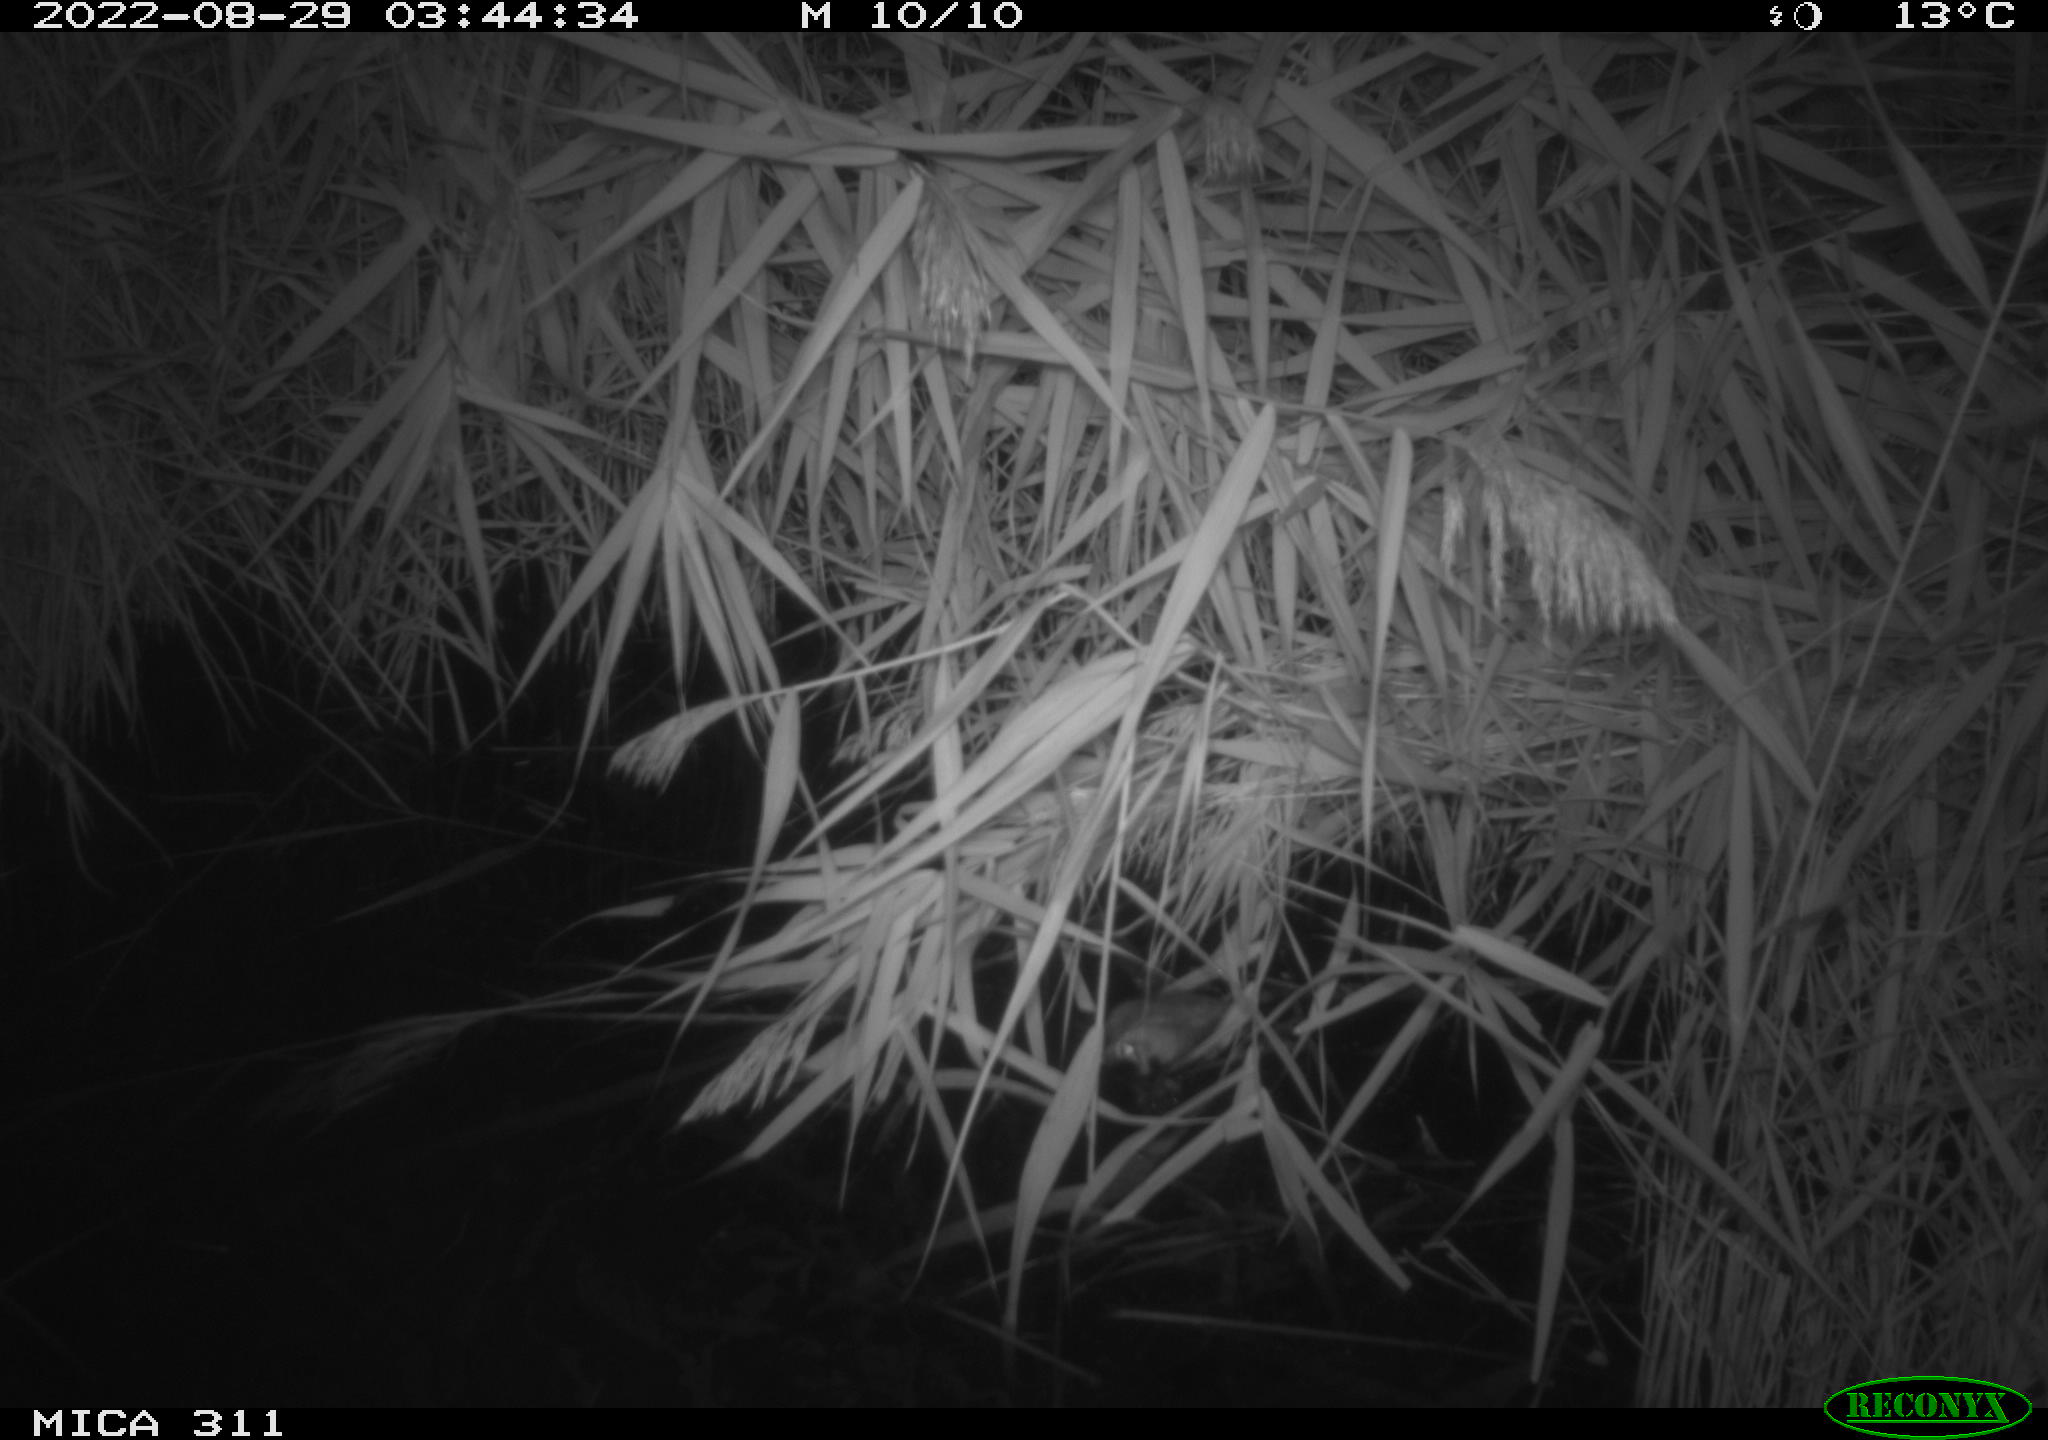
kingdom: Animalia
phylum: Chordata
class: Mammalia
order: Rodentia
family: Muridae
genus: Rattus
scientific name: Rattus norvegicus
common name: Brown rat
